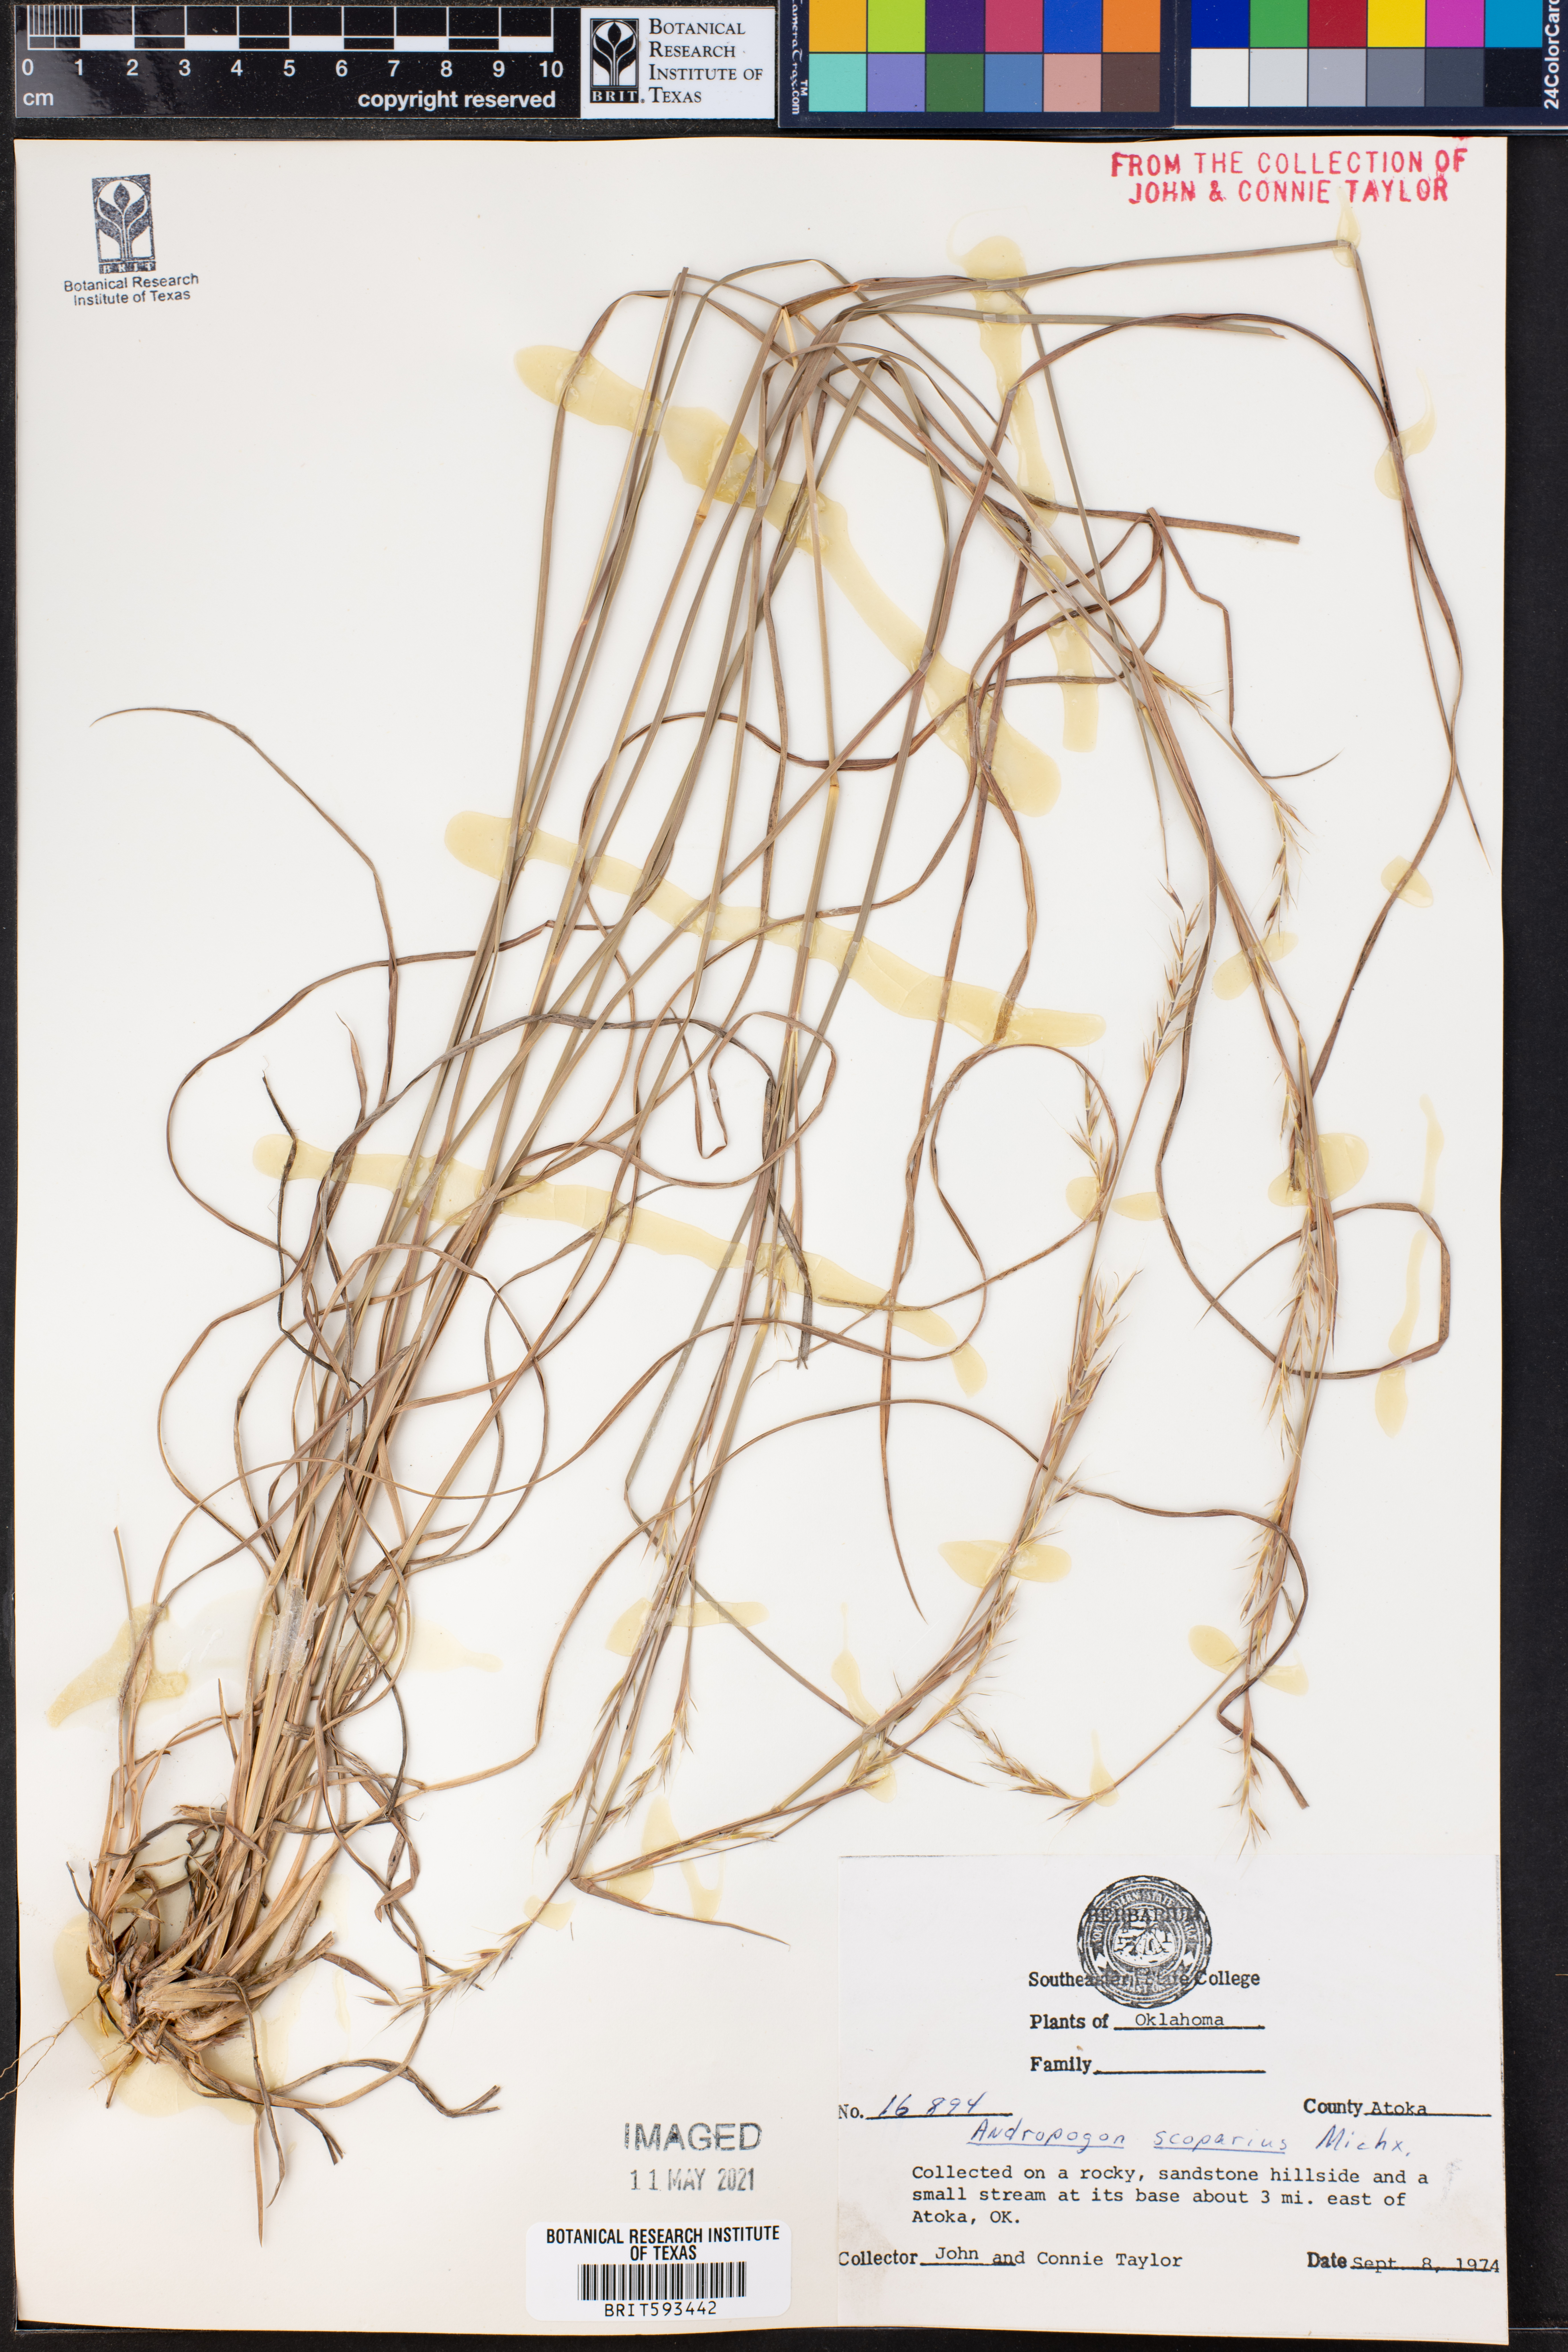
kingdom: Plantae
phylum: Tracheophyta
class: Liliopsida
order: Poales
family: Poaceae
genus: Schizachyrium
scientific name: Schizachyrium scoparium
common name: Little bluestem
